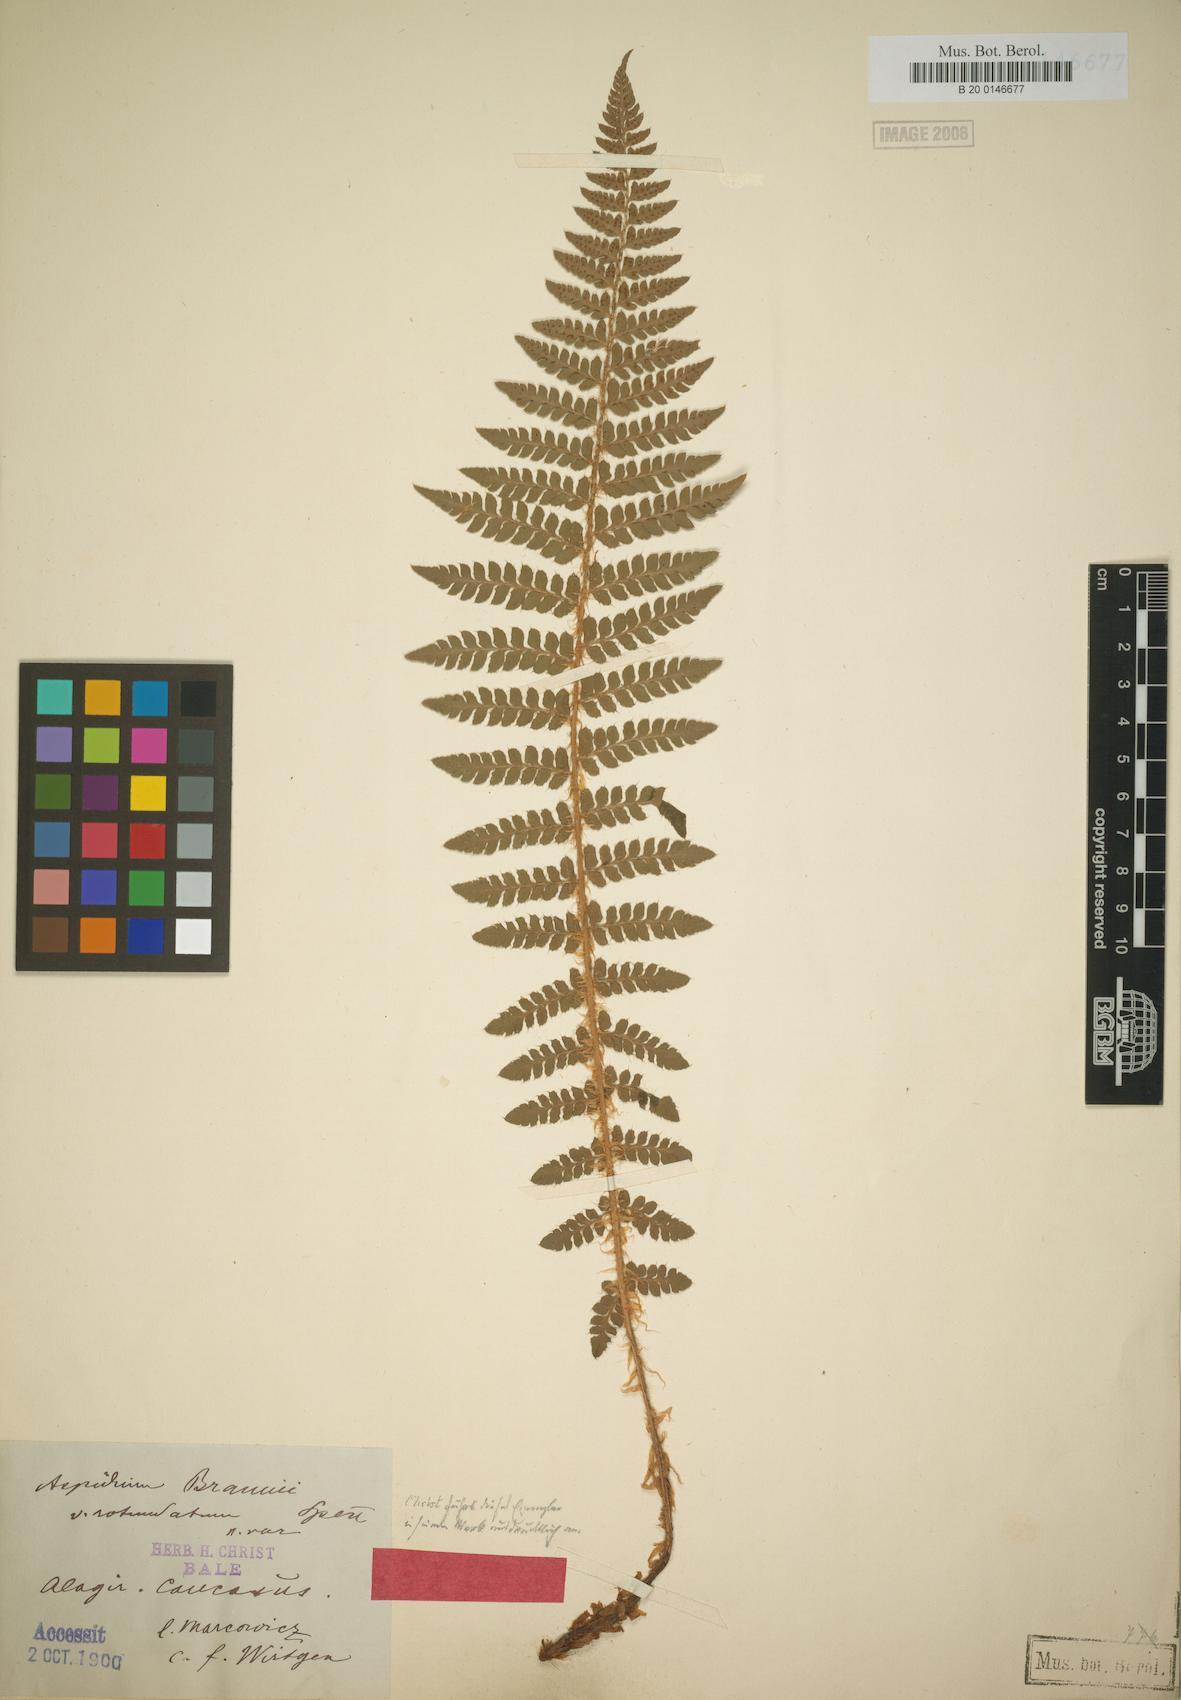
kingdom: Plantae
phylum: Tracheophyta
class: Polypodiopsida
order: Polypodiales
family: Dryopteridaceae
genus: Polystichum
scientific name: Polystichum braunii
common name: Braun's holly fern
